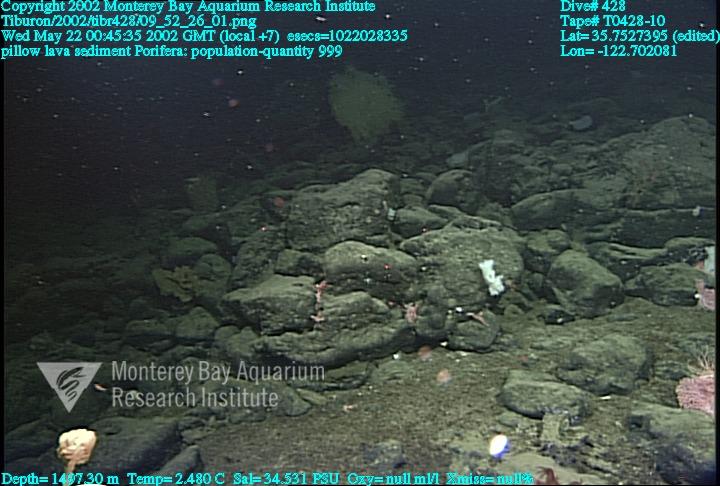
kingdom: Animalia
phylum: Porifera
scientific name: Porifera
